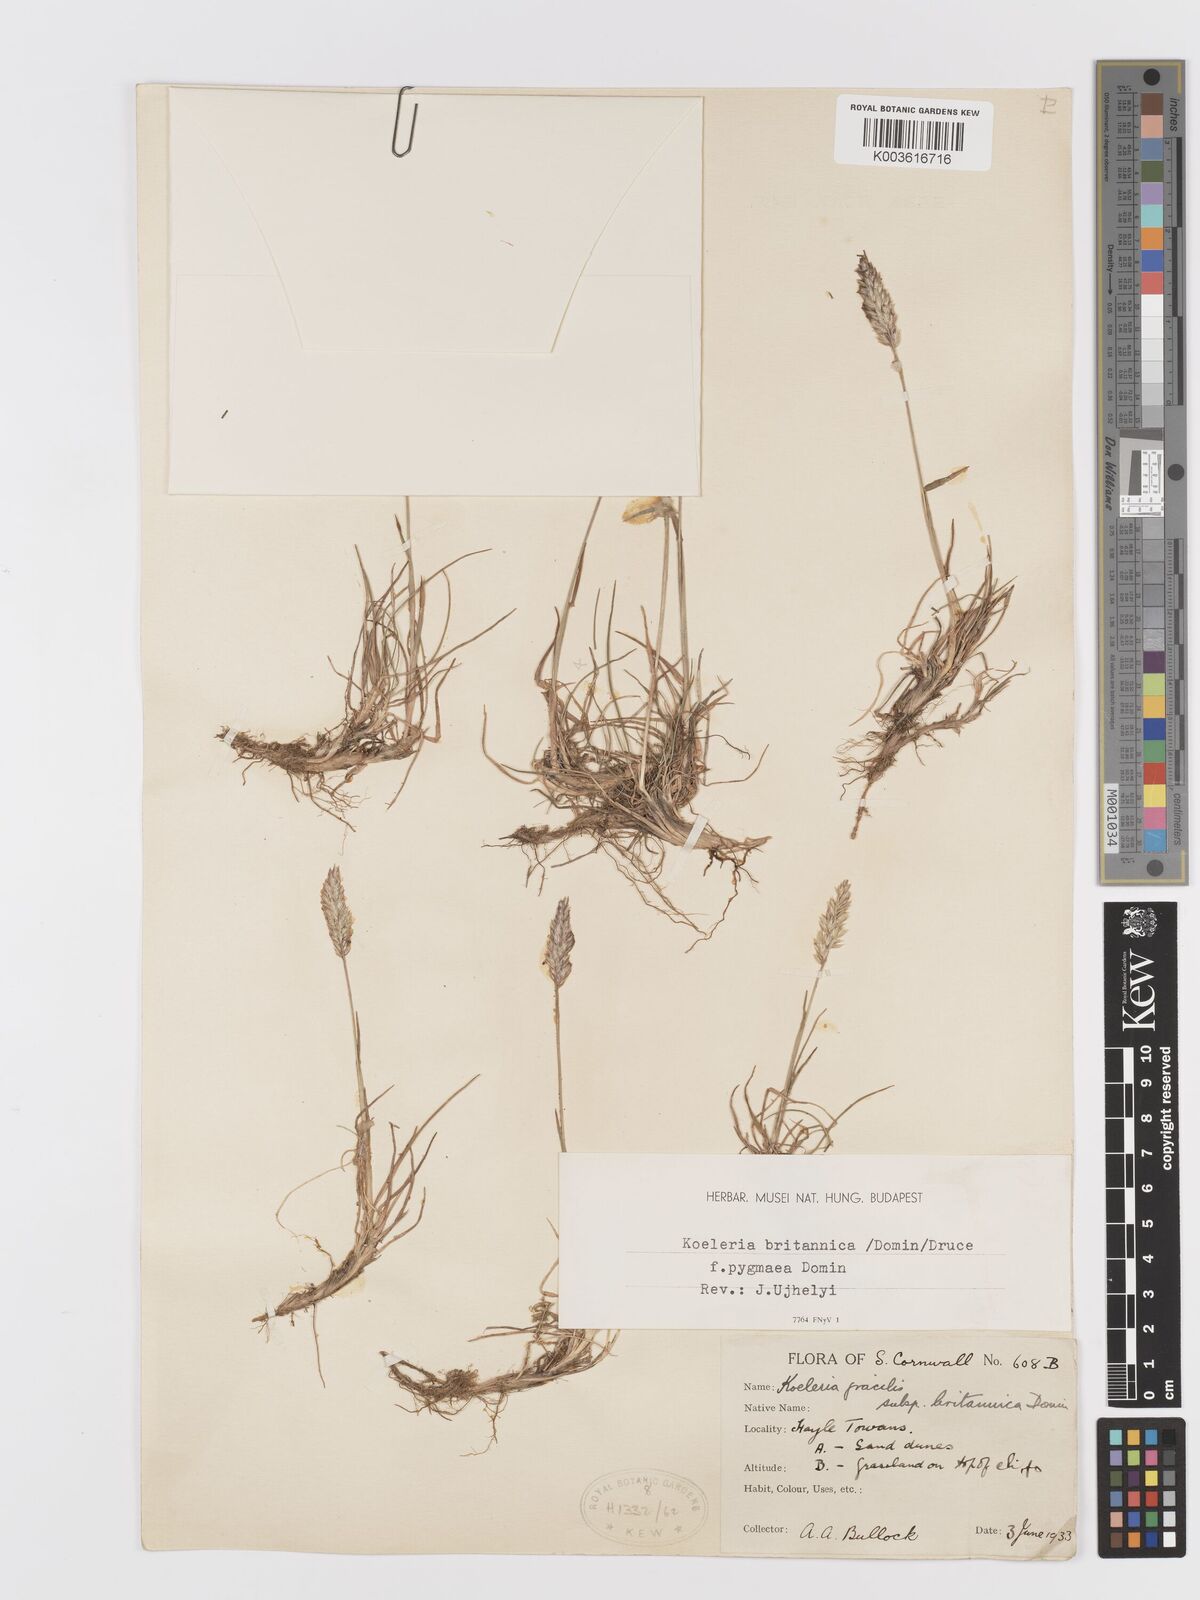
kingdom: Plantae
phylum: Tracheophyta
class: Liliopsida
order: Poales
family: Poaceae
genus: Koeleria
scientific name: Koeleria
